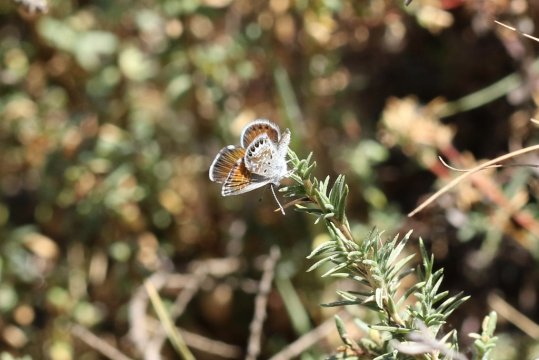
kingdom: Animalia
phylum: Arthropoda
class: Insecta
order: Lepidoptera
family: Lycaenidae
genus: Brephidium
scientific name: Brephidium exilis
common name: Western Pygmy-Blue
